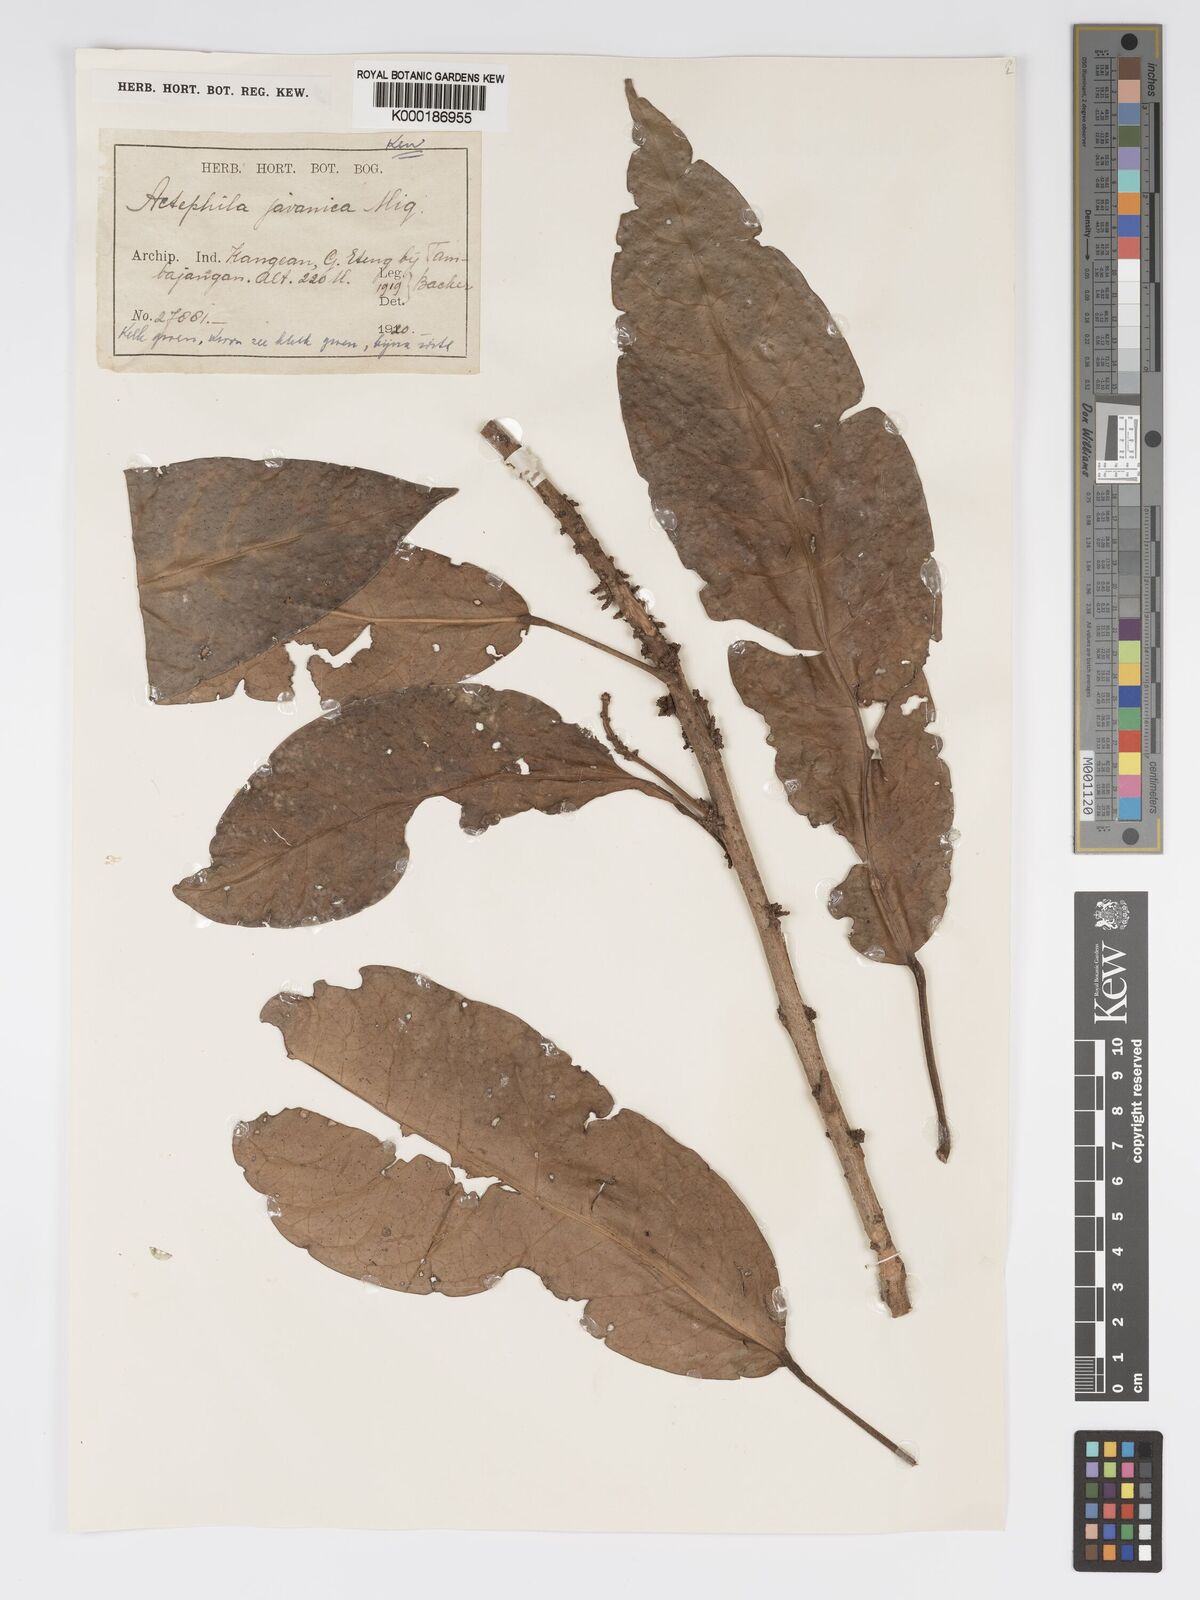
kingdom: Plantae
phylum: Tracheophyta
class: Magnoliopsida
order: Malpighiales
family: Phyllanthaceae
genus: Actephila
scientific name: Actephila
